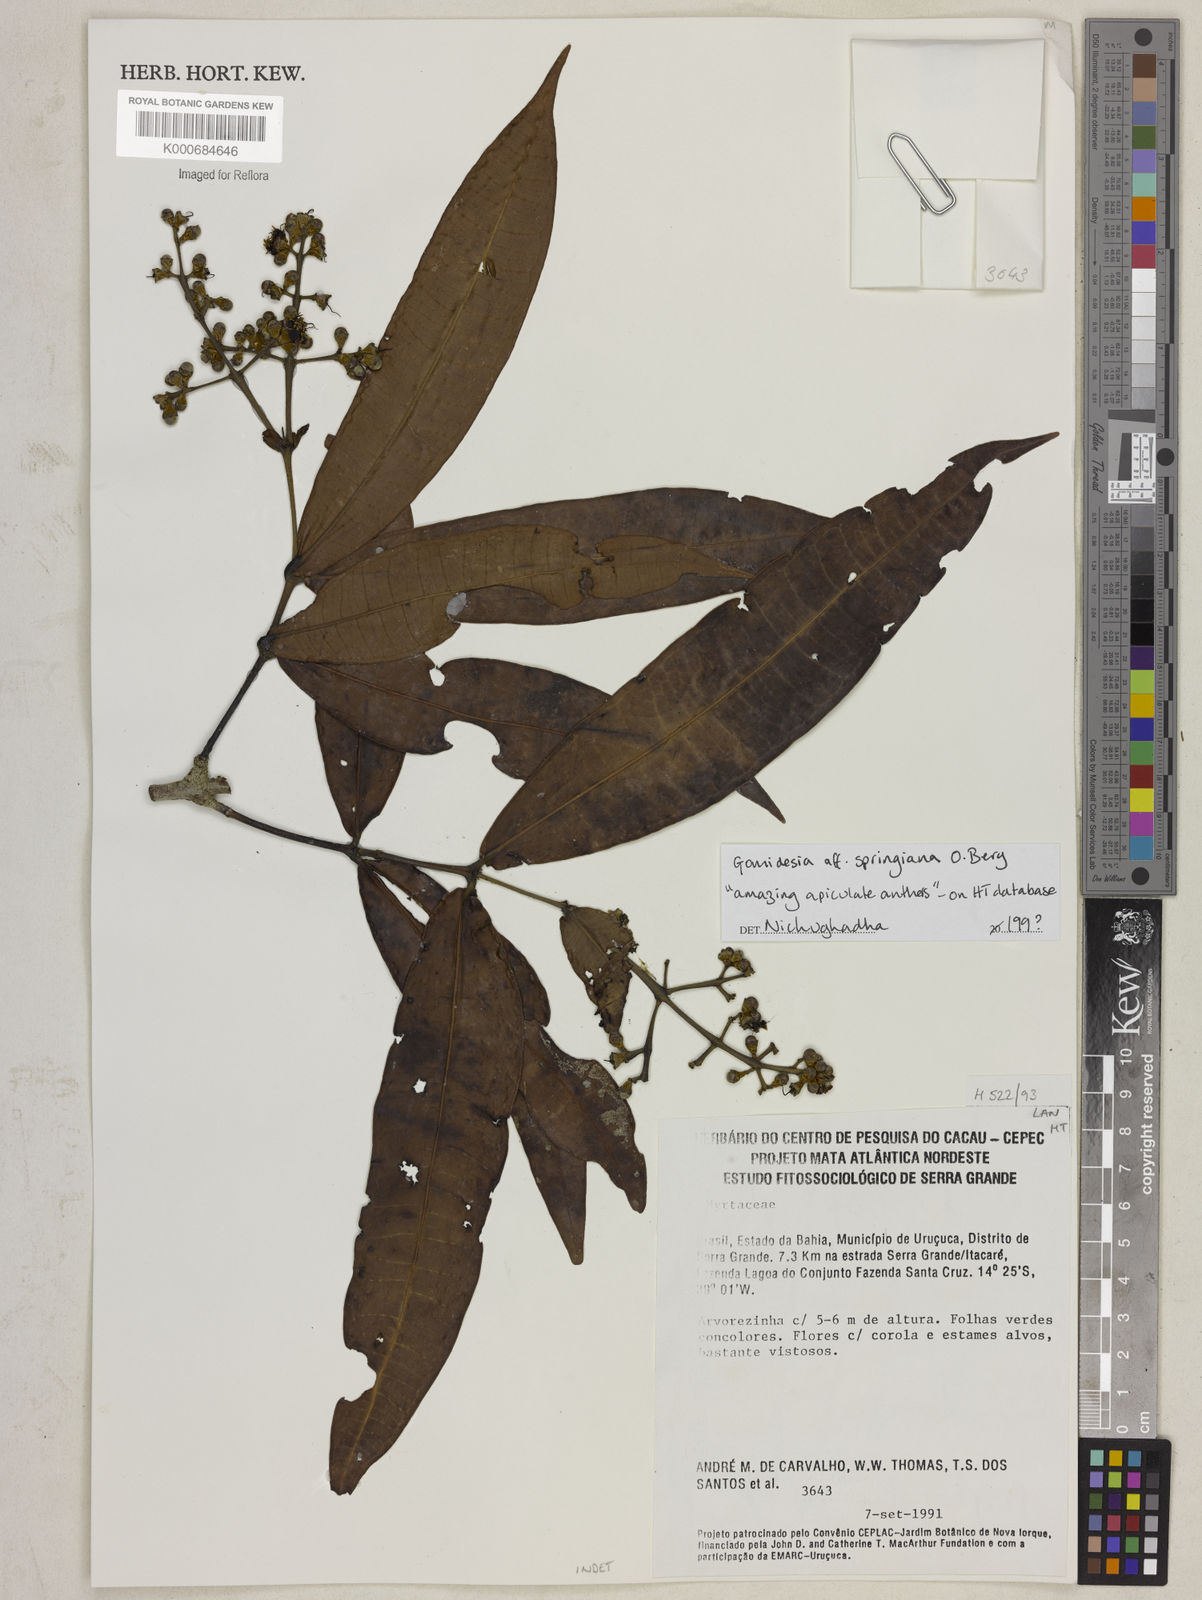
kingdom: Plantae
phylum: Tracheophyta
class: Magnoliopsida
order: Myrtales
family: Myrtaceae
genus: Myrcia
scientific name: Myrcia fenzliana
